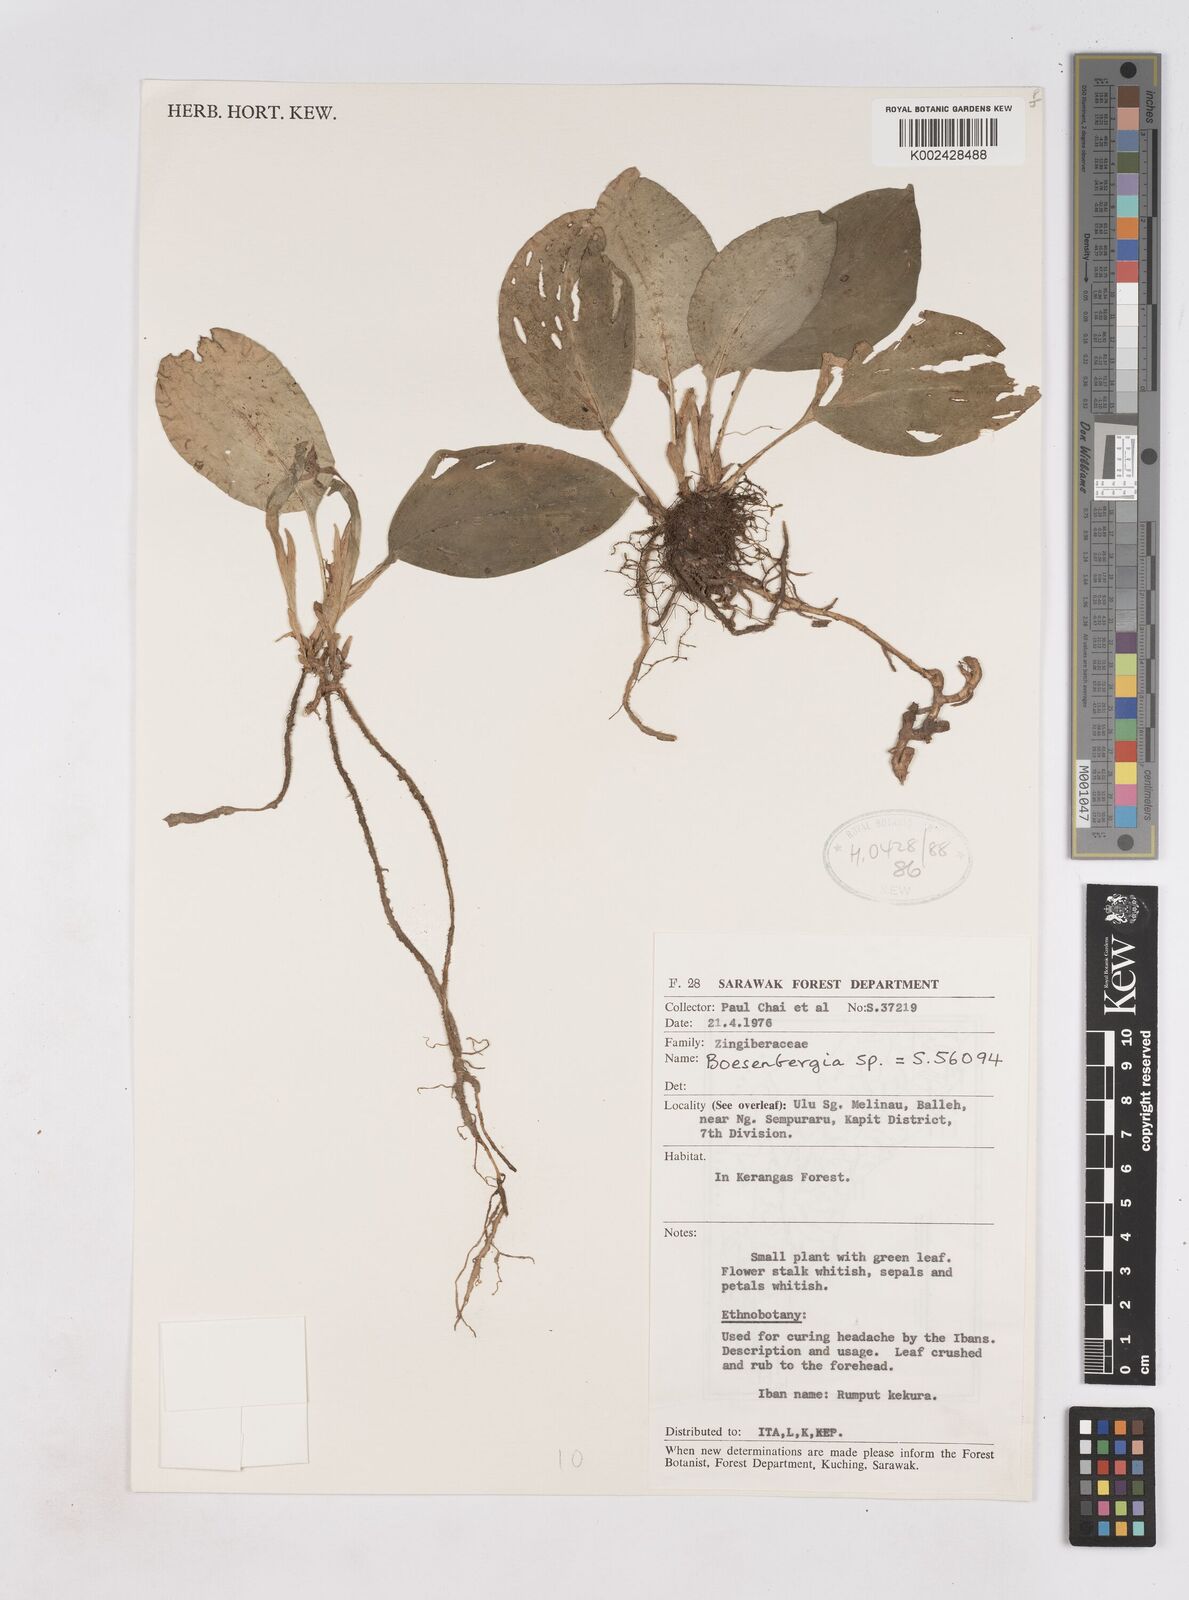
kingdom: Plantae
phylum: Tracheophyta
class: Liliopsida
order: Zingiberales
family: Zingiberaceae
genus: Boesenbergia
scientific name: Boesenbergia
